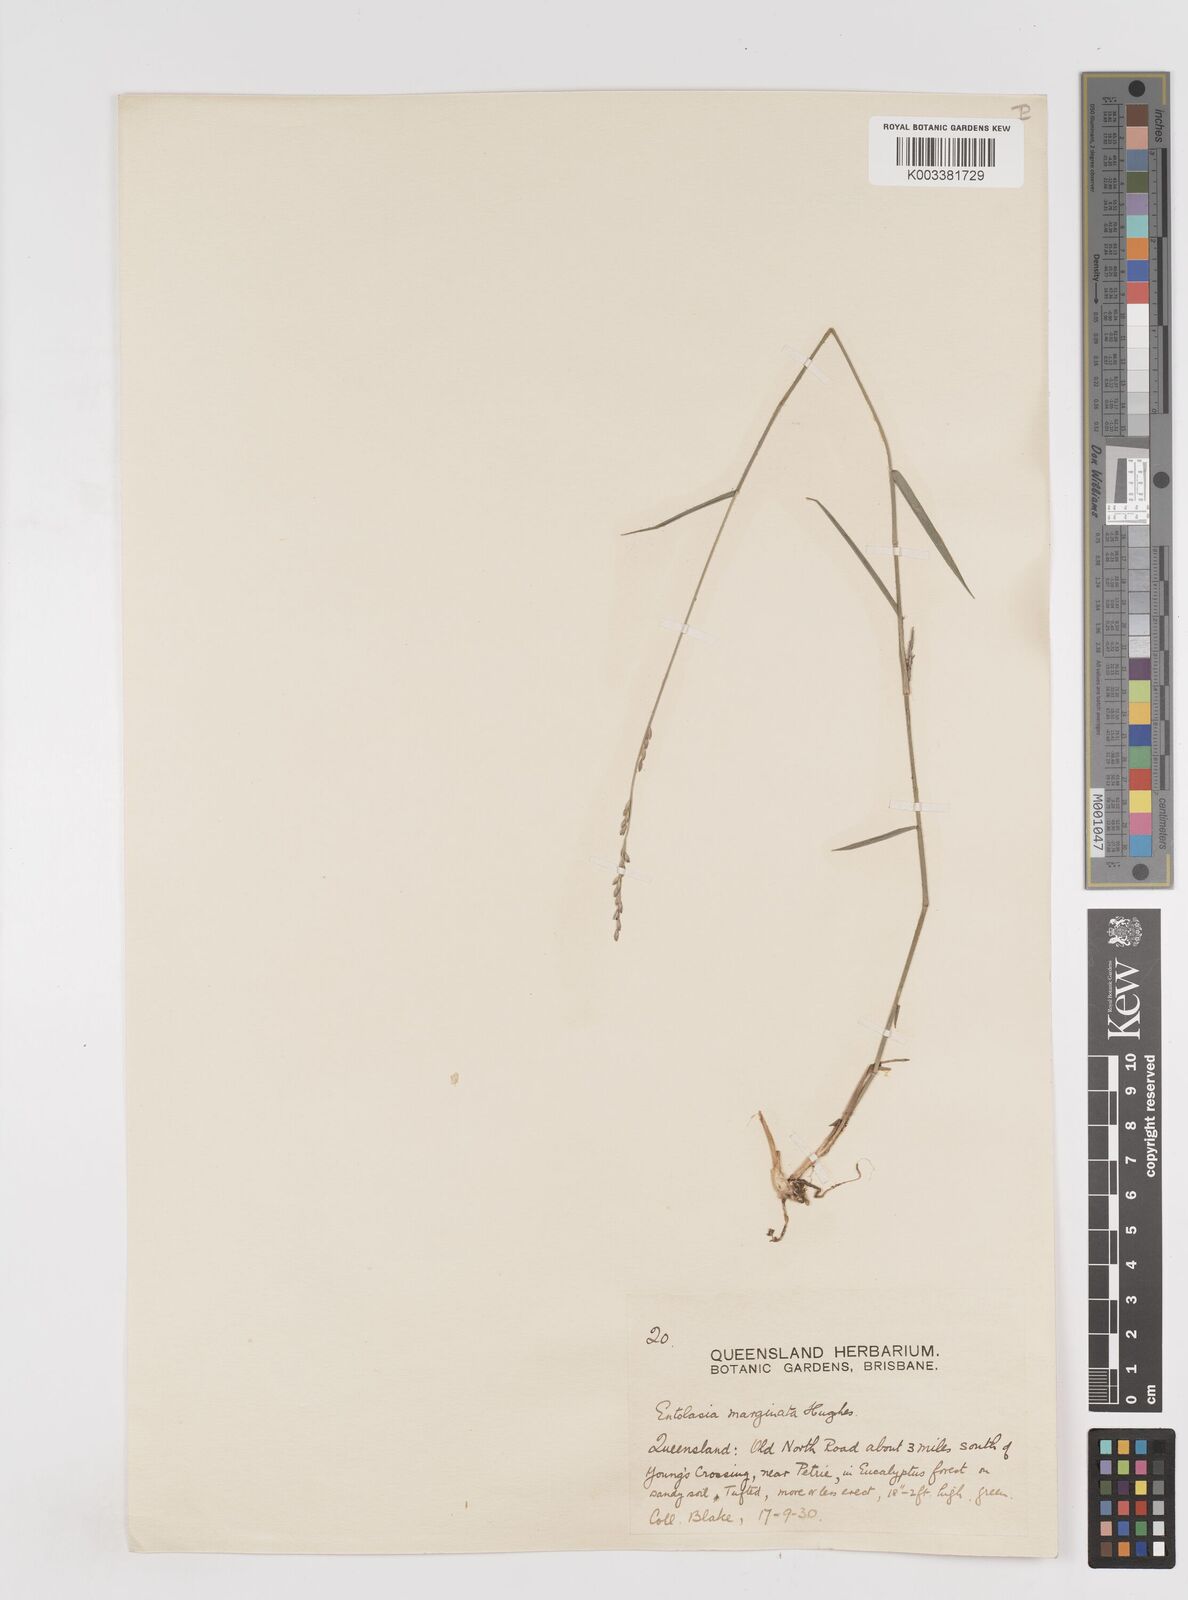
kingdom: Plantae
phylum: Tracheophyta
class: Liliopsida
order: Poales
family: Poaceae
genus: Entolasia
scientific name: Entolasia stricta
